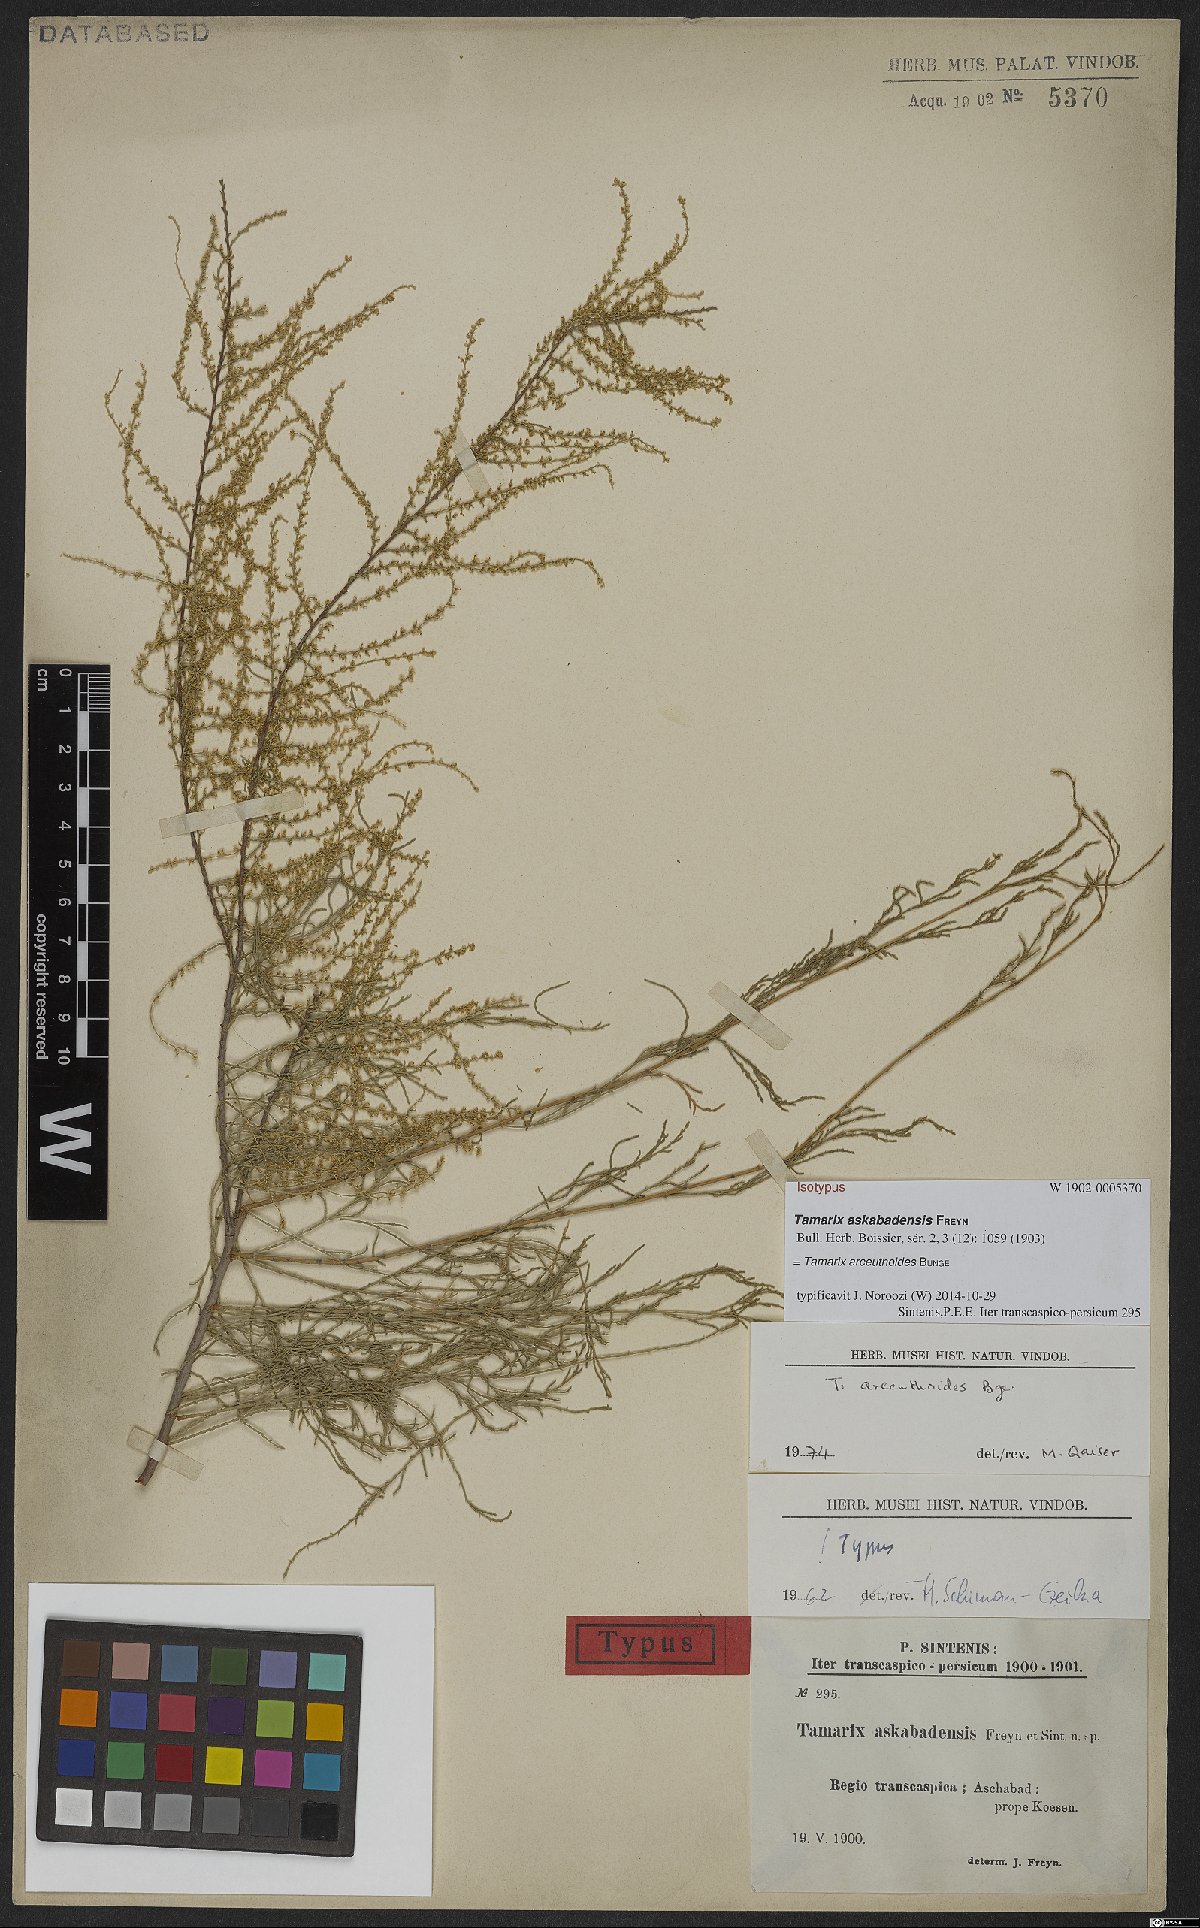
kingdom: Plantae
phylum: Tracheophyta
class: Magnoliopsida
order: Caryophyllales
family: Tamaricaceae
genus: Tamarix
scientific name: Tamarix arceuthoides
